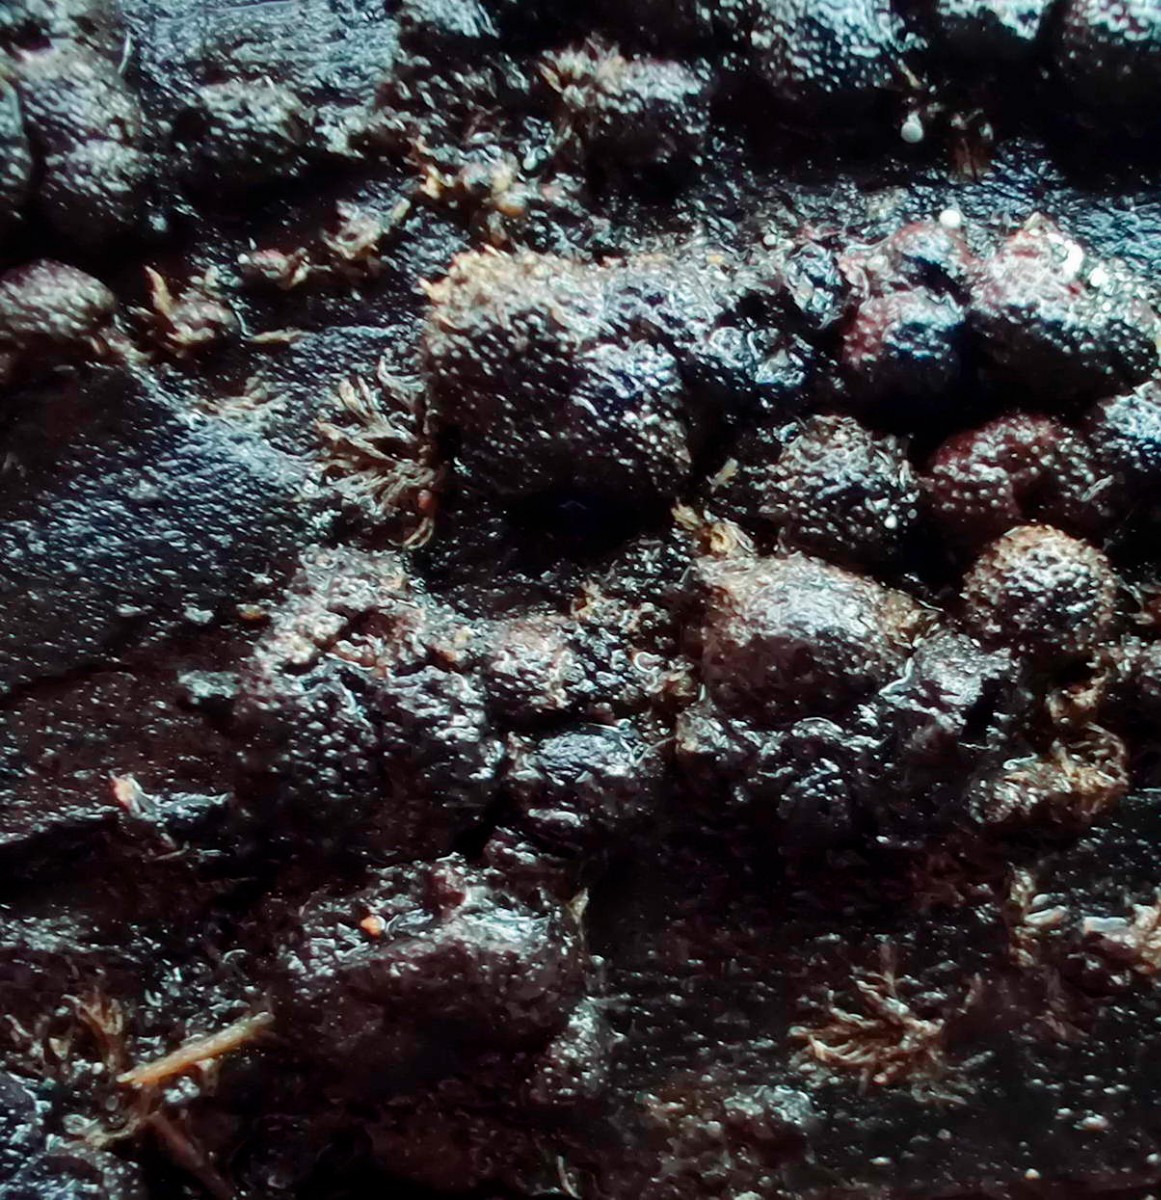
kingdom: Fungi
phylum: Ascomycota
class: Sordariomycetes
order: Xylariales
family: Hypoxylaceae
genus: Hypoxylon
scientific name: Hypoxylon howeanum
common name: halvkugleformet kulbær
